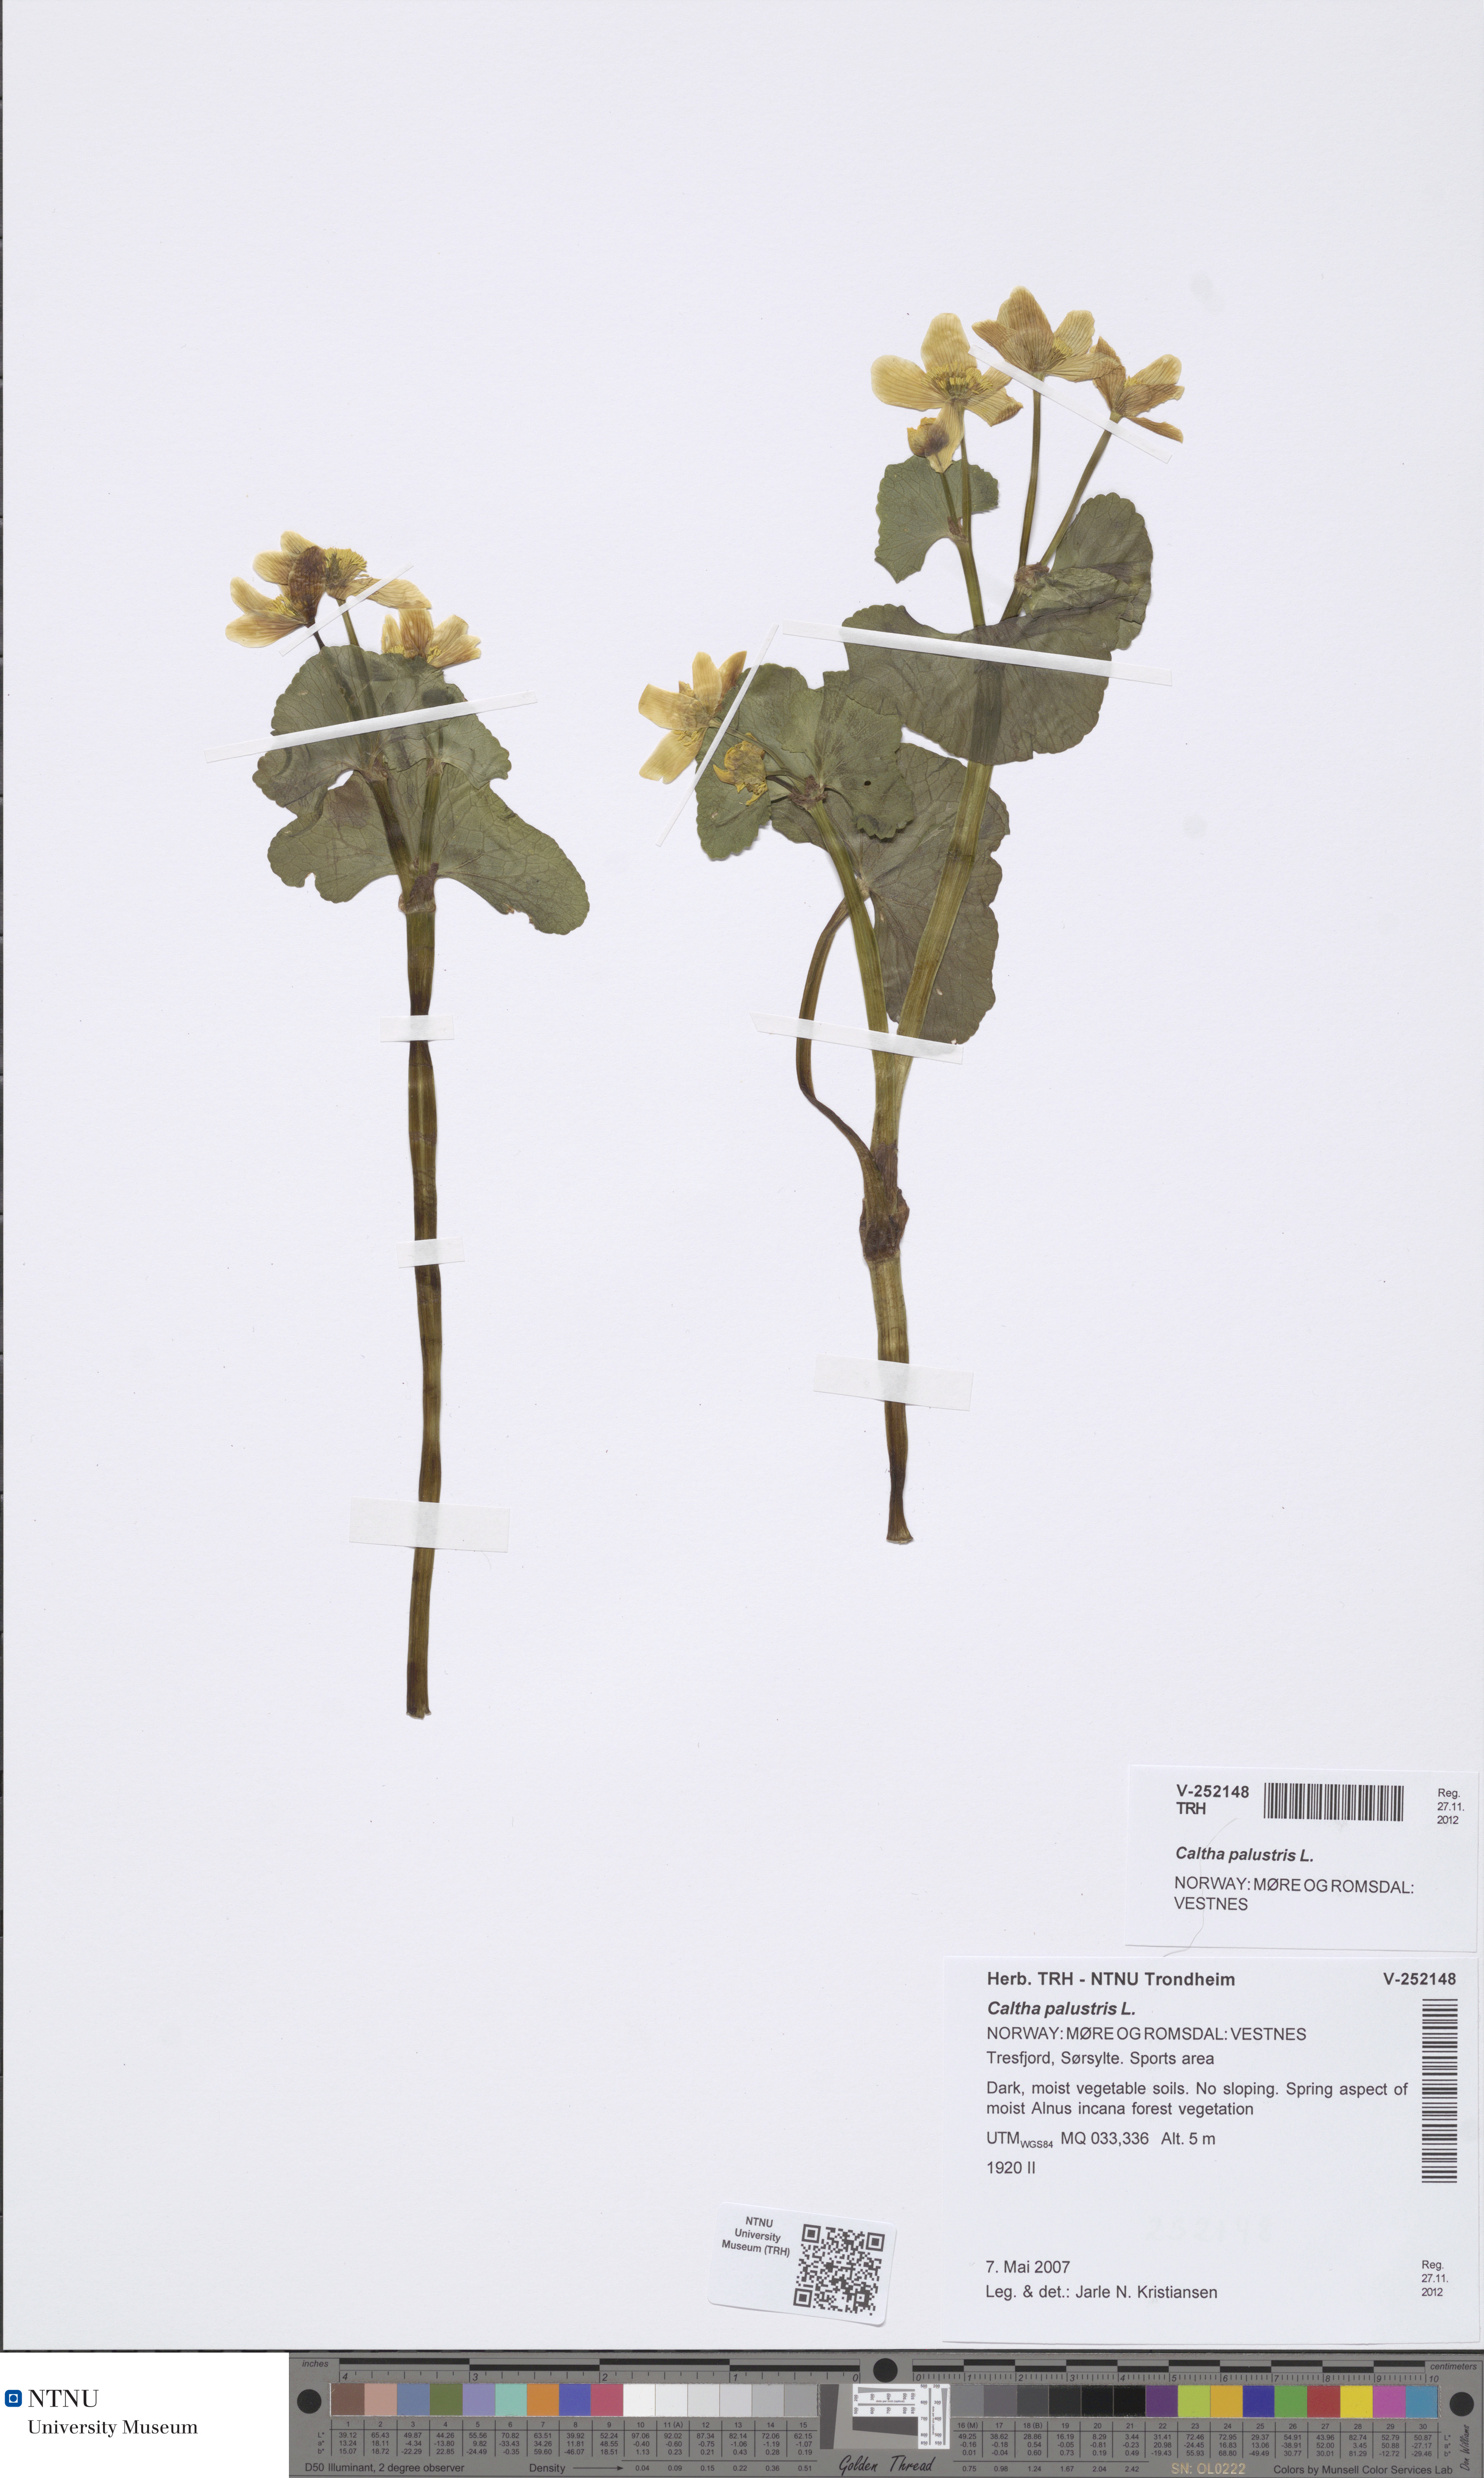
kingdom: Plantae
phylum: Tracheophyta
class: Magnoliopsida
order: Ranunculales
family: Ranunculaceae
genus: Caltha
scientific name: Caltha palustris
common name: Marsh marigold
